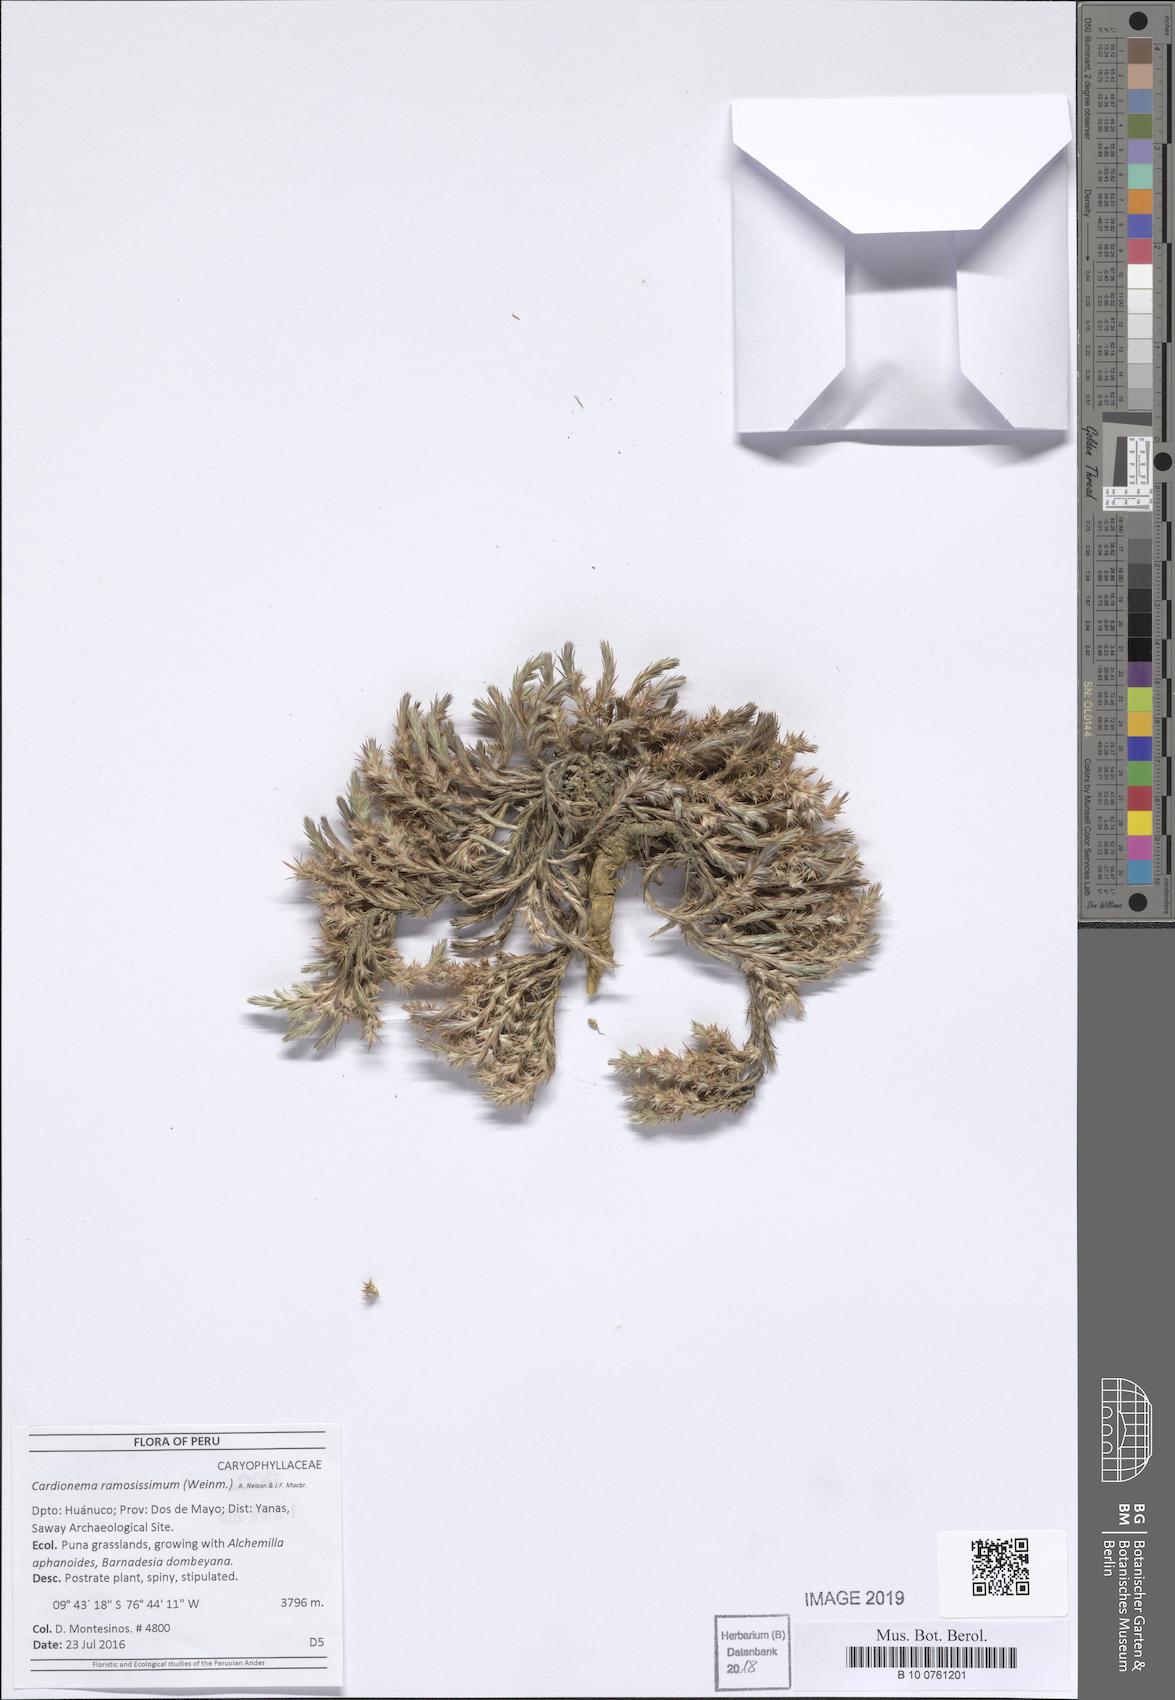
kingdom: Plantae
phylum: Tracheophyta
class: Magnoliopsida
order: Caryophyllales
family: Caryophyllaceae
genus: Cardionema
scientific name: Cardionema ramosissima
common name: Sandcarpet
